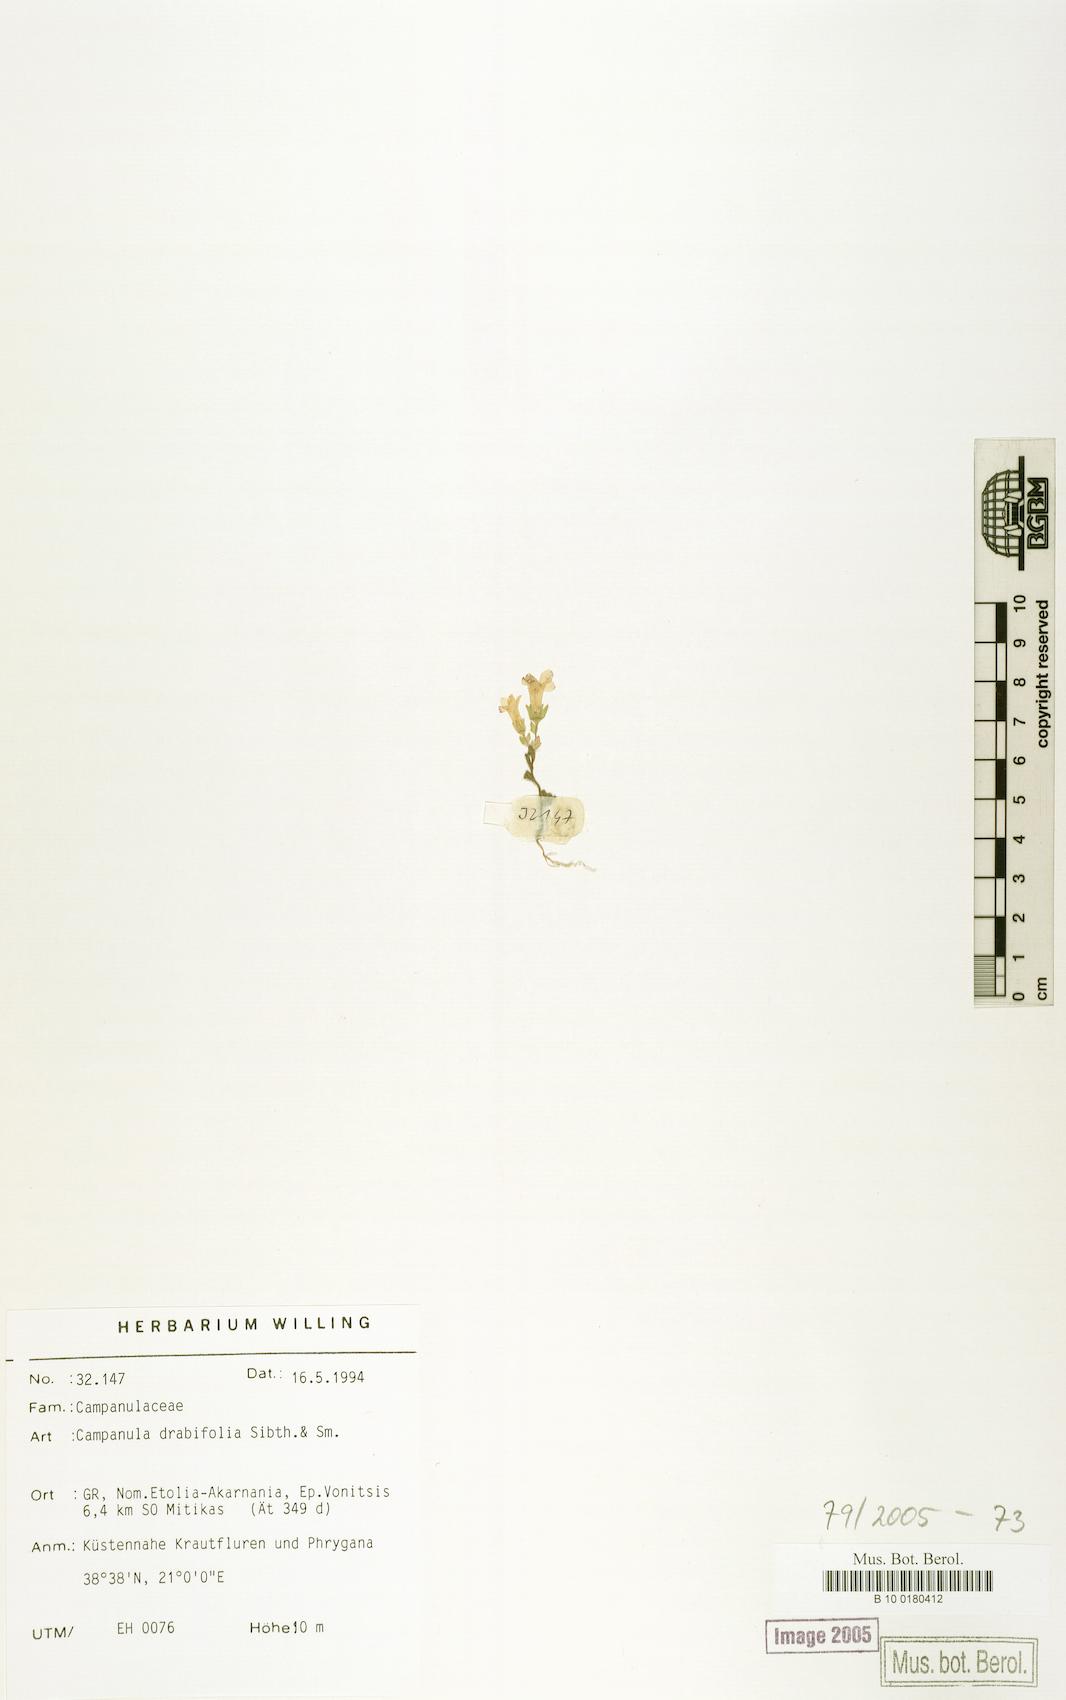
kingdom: Plantae
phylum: Tracheophyta
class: Magnoliopsida
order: Asterales
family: Campanulaceae
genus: Campanula
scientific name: Campanula drabifolia
